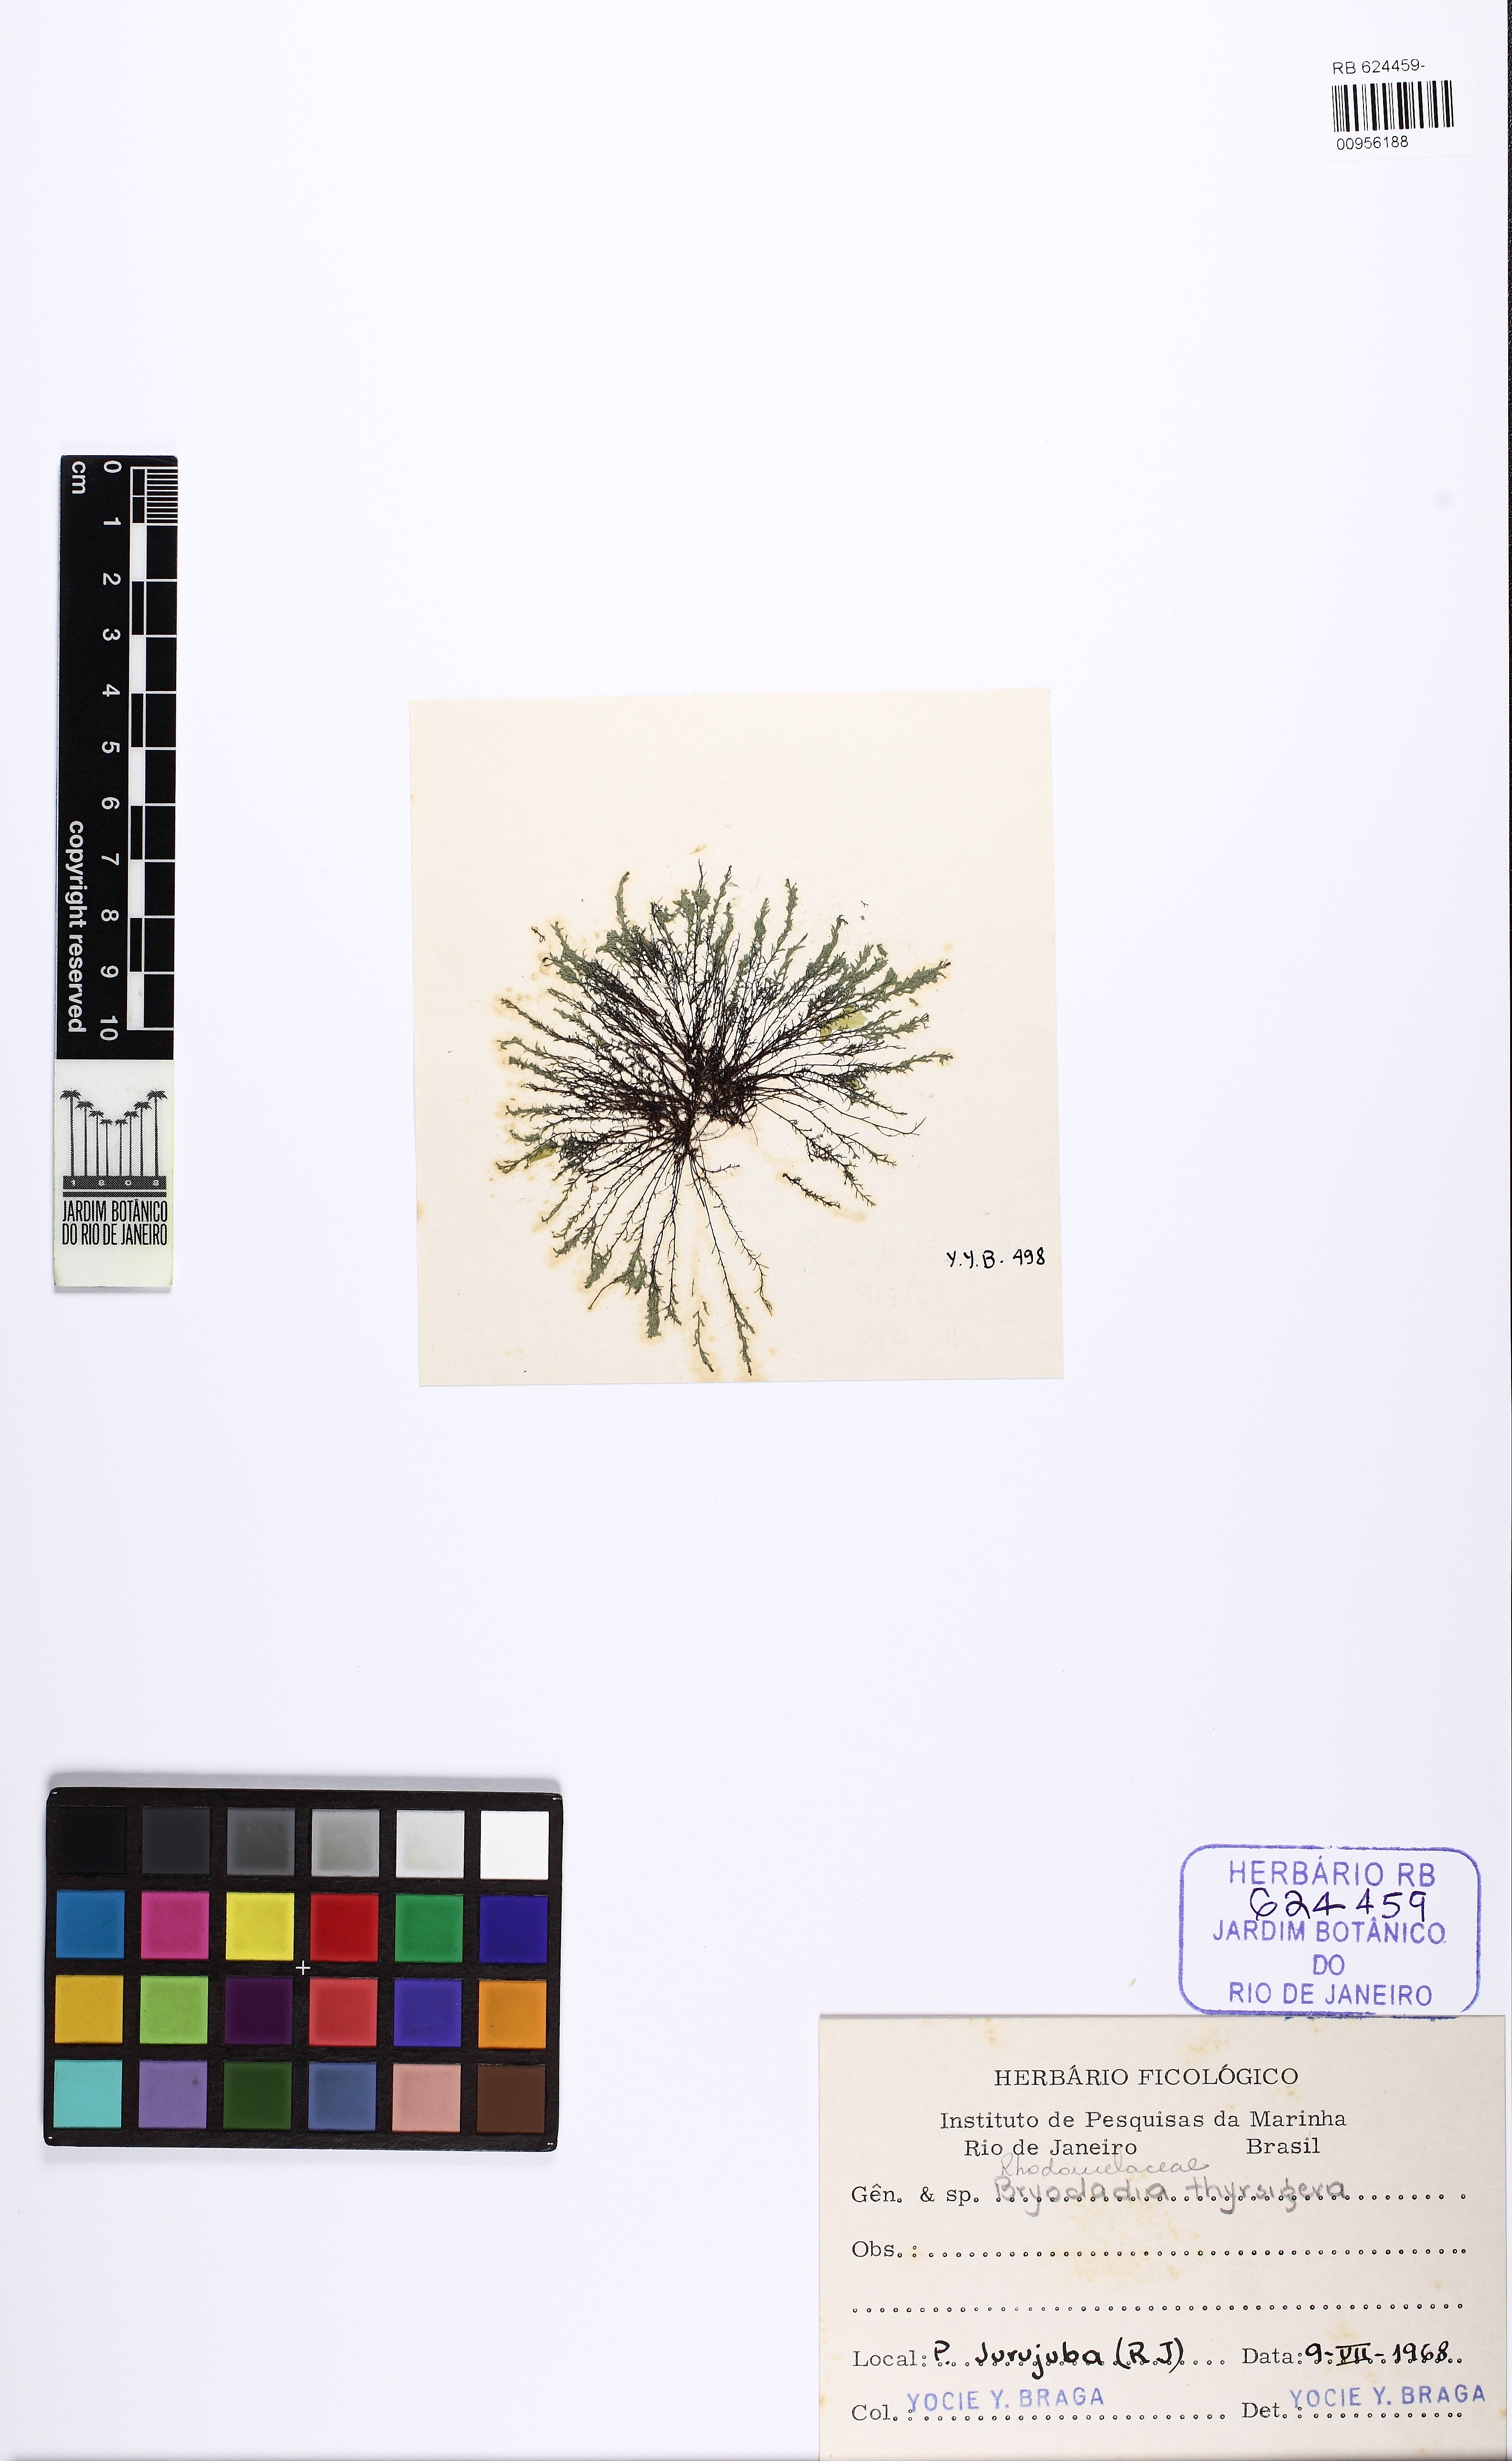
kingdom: Plantae
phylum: Rhodophyta
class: Florideophyceae
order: Ceramiales
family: Rhodomelaceae
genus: Bryocladia
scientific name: Bryocladia thyrsigera
